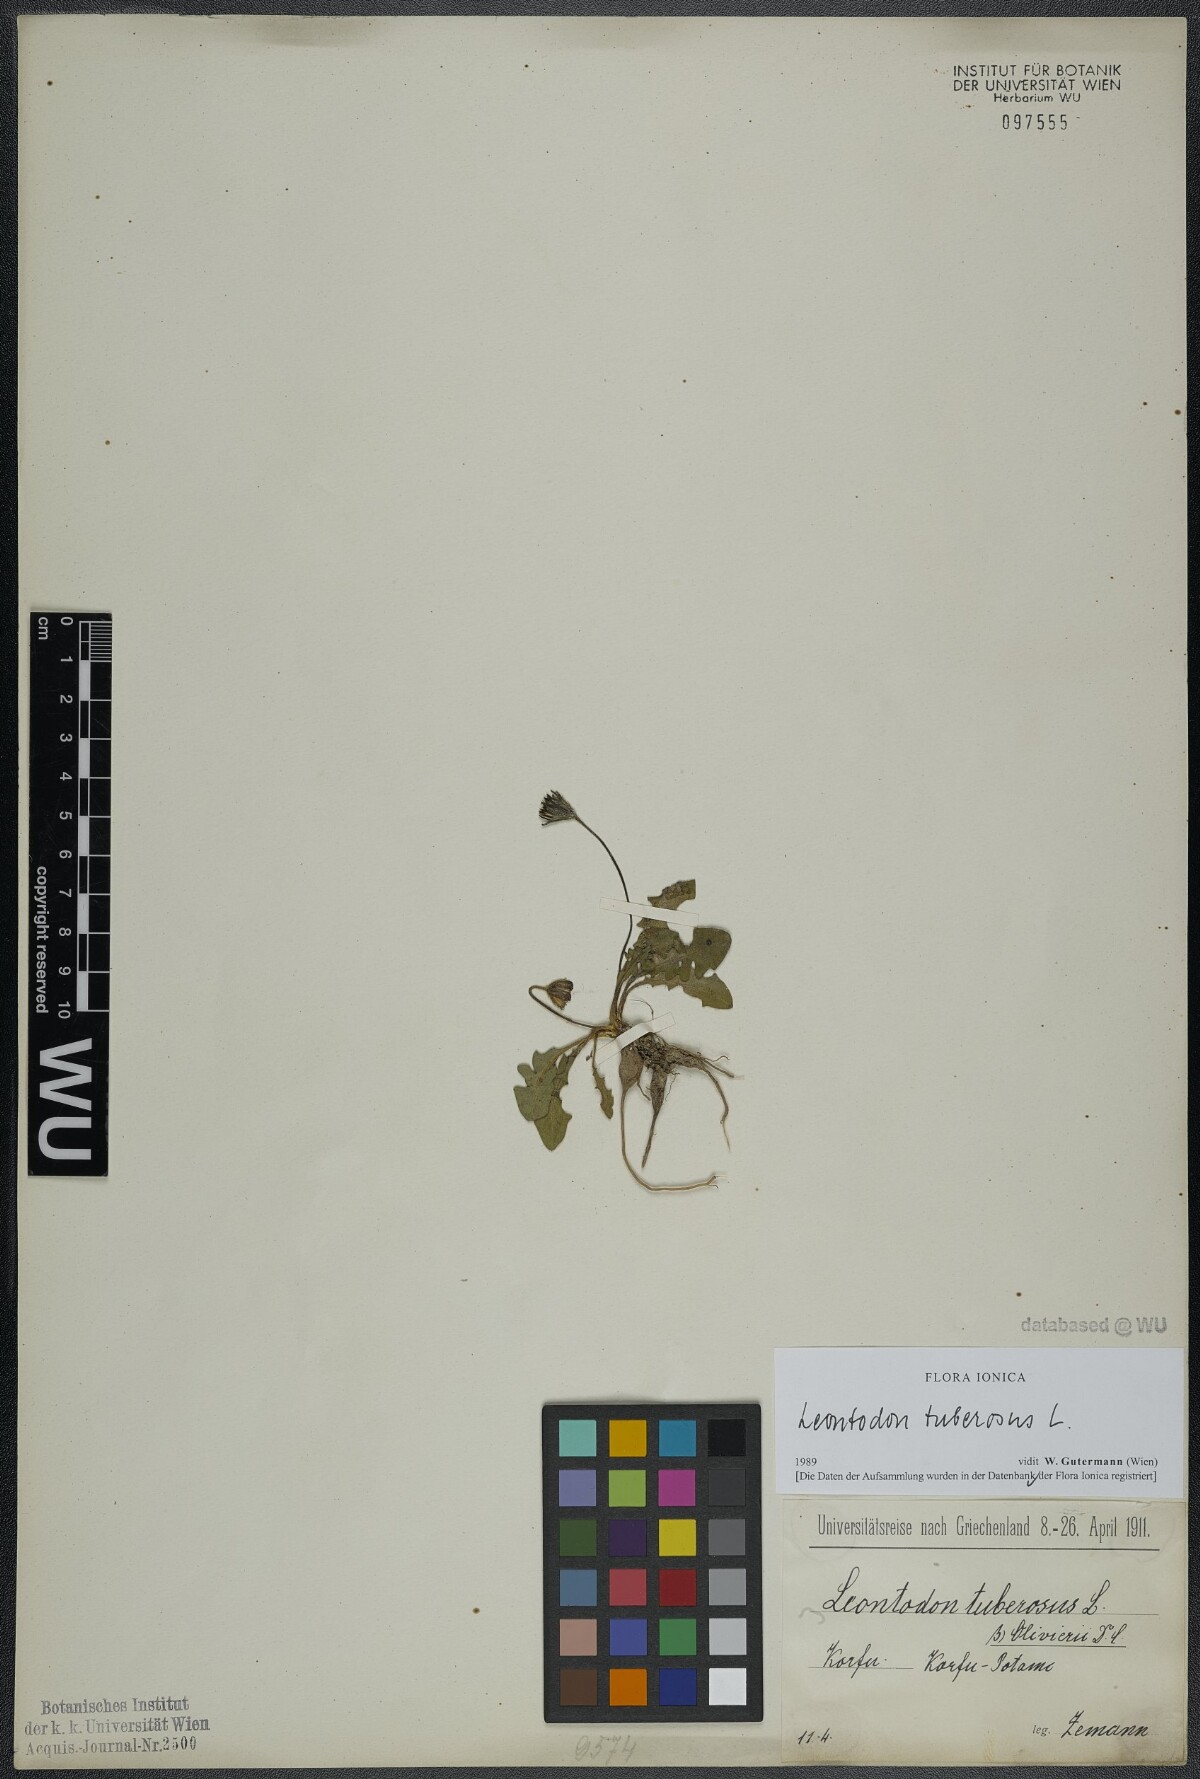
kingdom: Plantae
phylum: Tracheophyta
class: Magnoliopsida
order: Asterales
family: Asteraceae
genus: Thrincia
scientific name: Thrincia tuberosa
